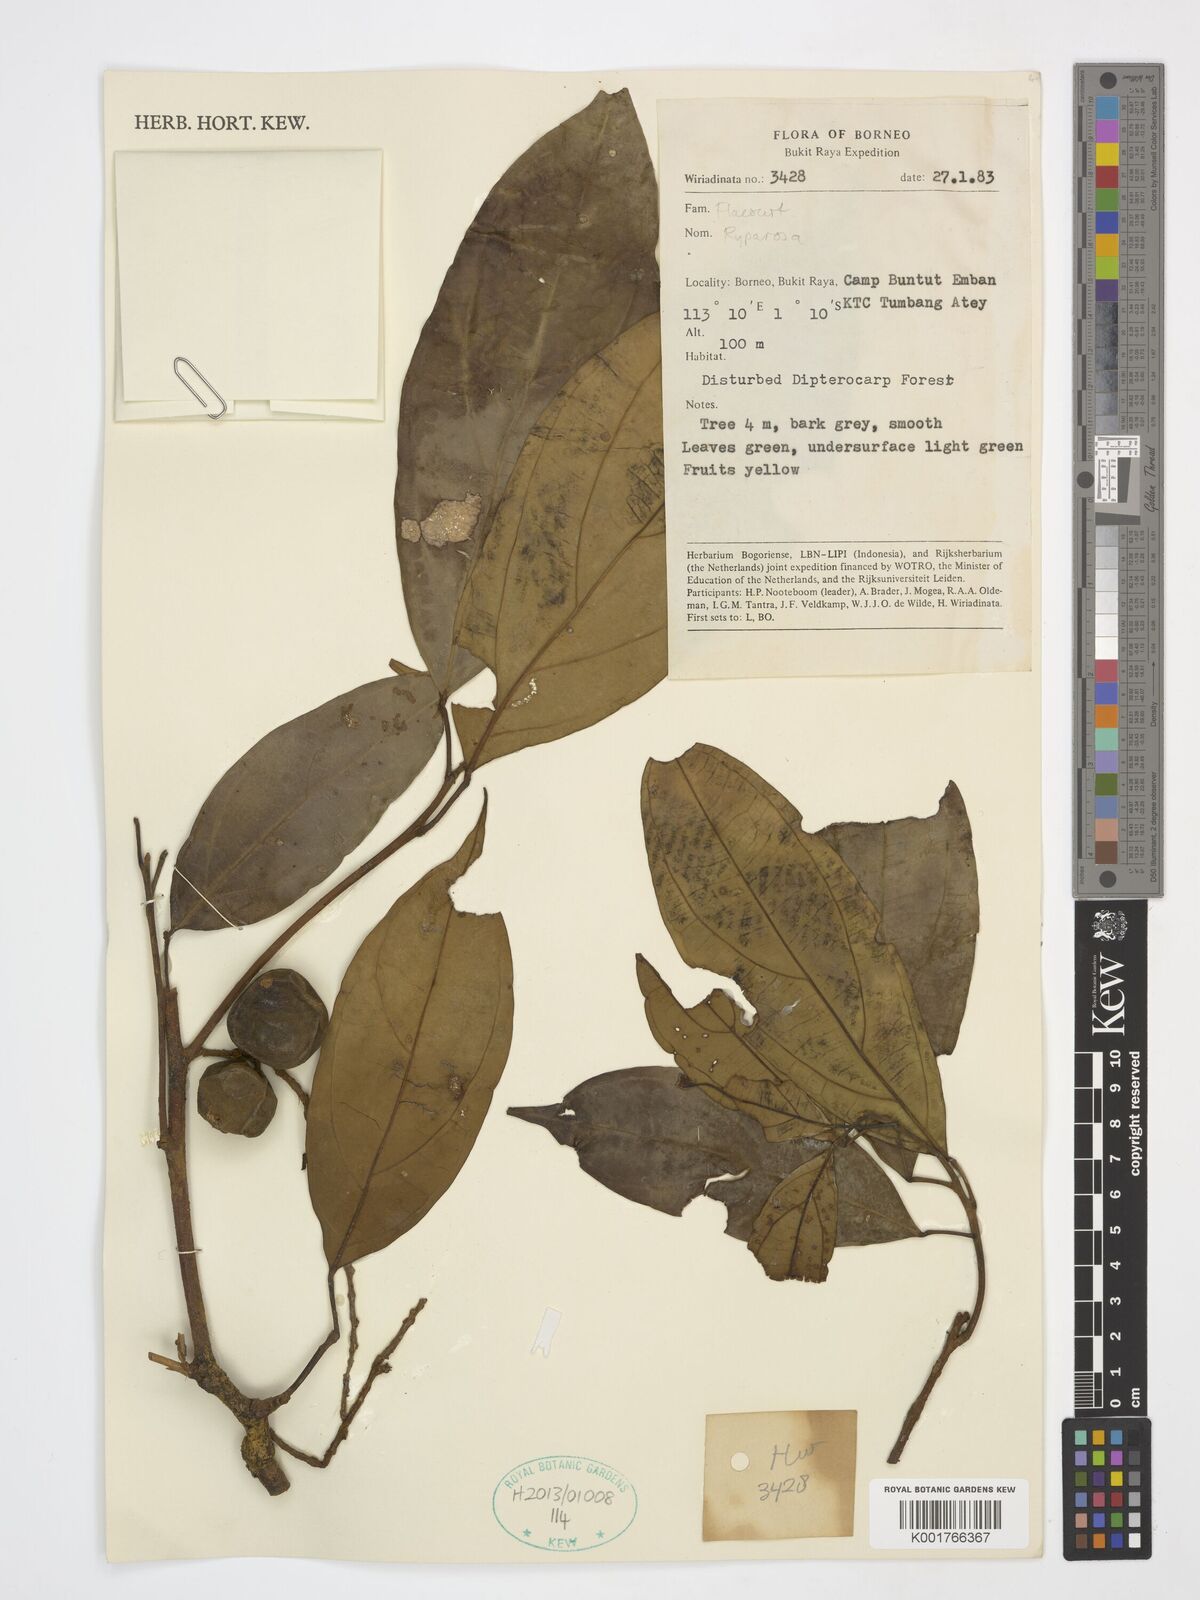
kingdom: Plantae
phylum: Tracheophyta
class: Magnoliopsida
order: Malpighiales
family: Achariaceae
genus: Ryparosa
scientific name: Ryparosa
